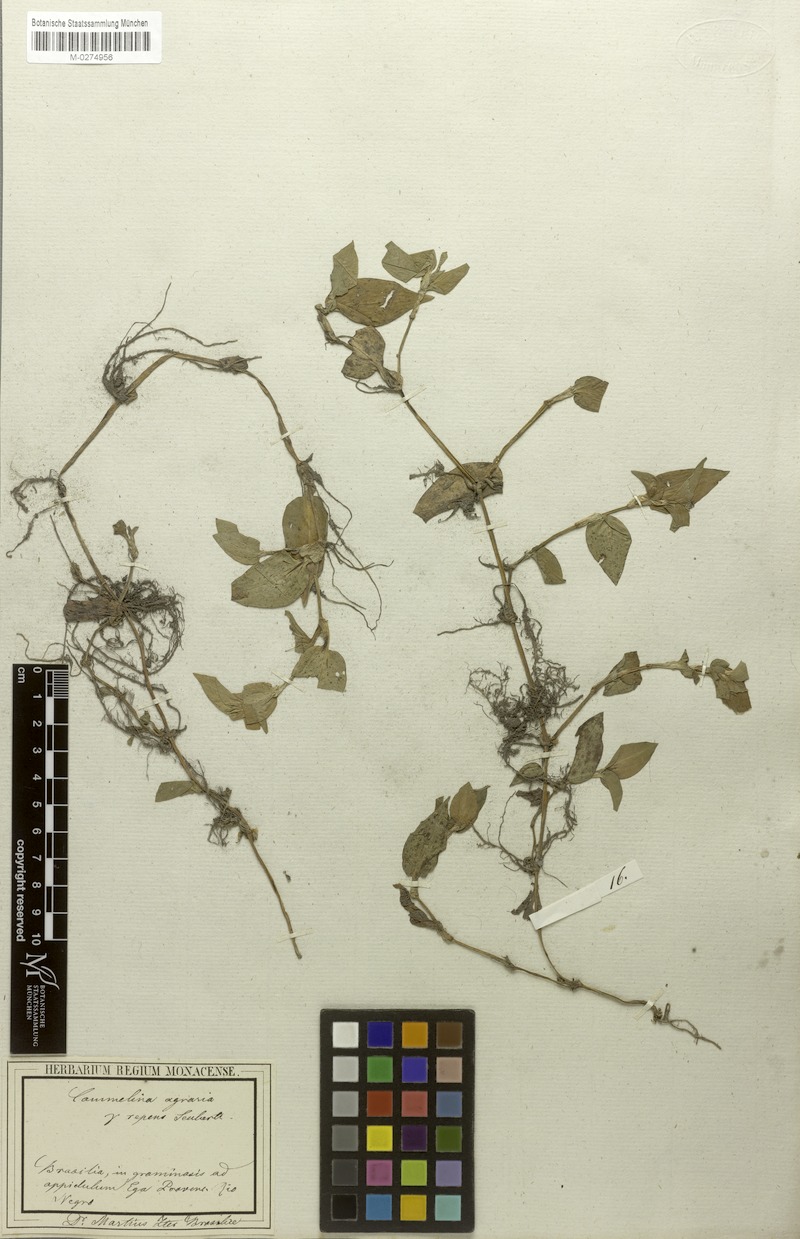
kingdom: Plantae
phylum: Tracheophyta
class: Liliopsida
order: Commelinales
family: Commelinaceae
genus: Commelina
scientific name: Commelina diffusa
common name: Climbing dayflower
